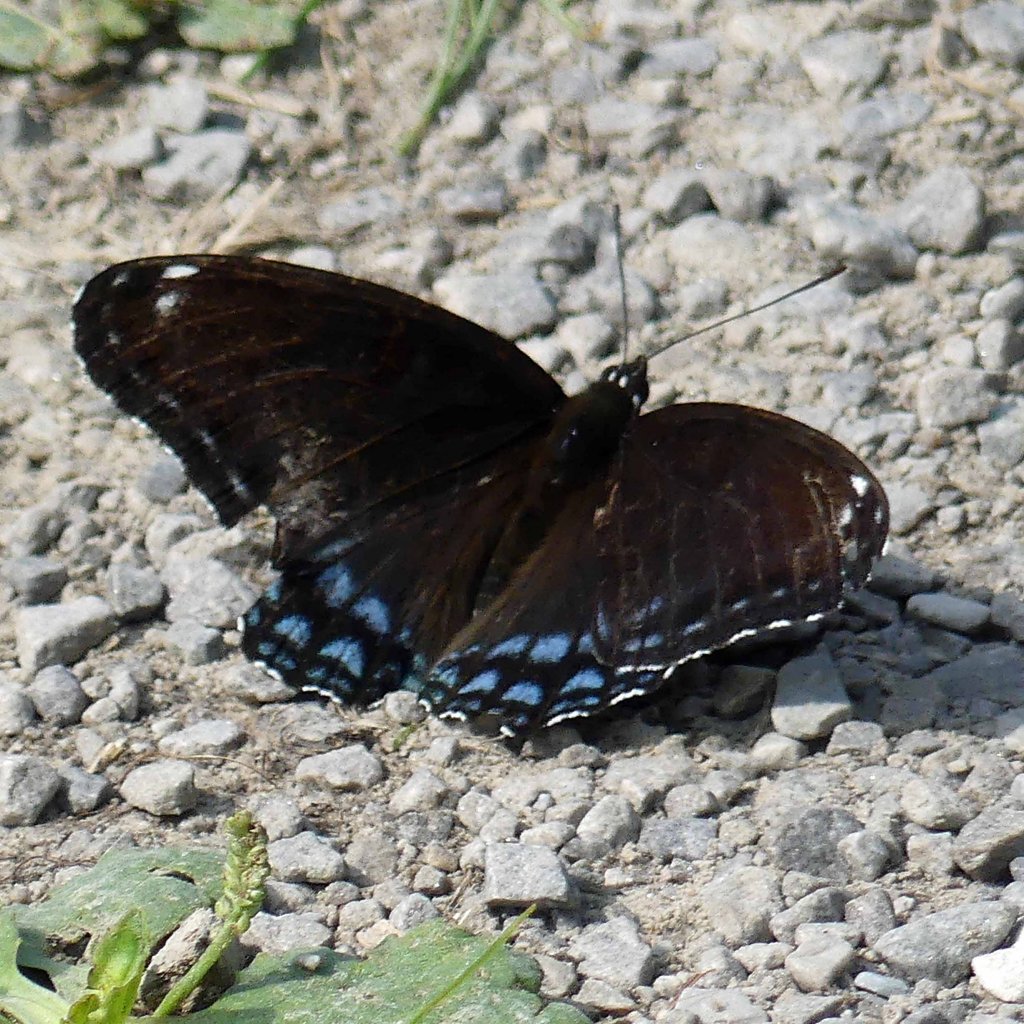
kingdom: Animalia
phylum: Arthropoda
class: Insecta
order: Lepidoptera
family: Nymphalidae
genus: Limenitis
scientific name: Limenitis astyanax
